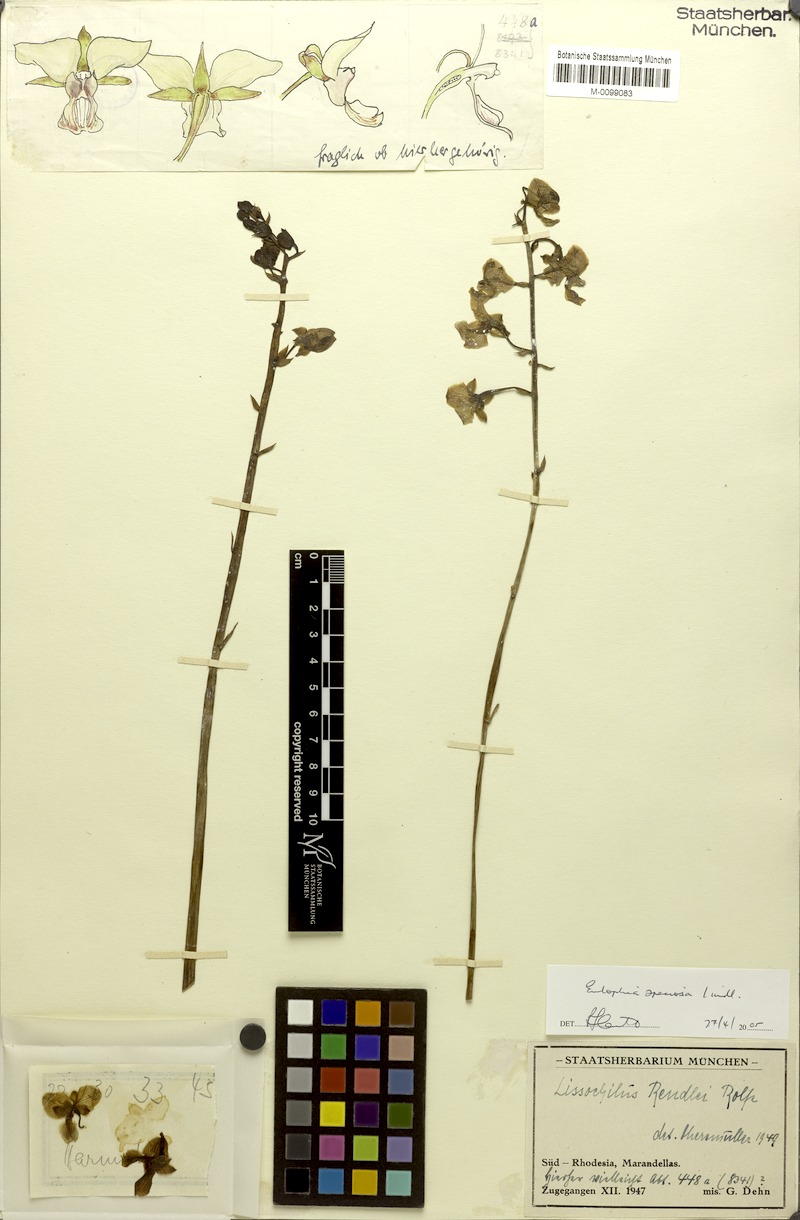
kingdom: Plantae
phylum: Tracheophyta
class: Liliopsida
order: Asparagales
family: Orchidaceae
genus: Eulophia
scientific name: Eulophia speciosa
